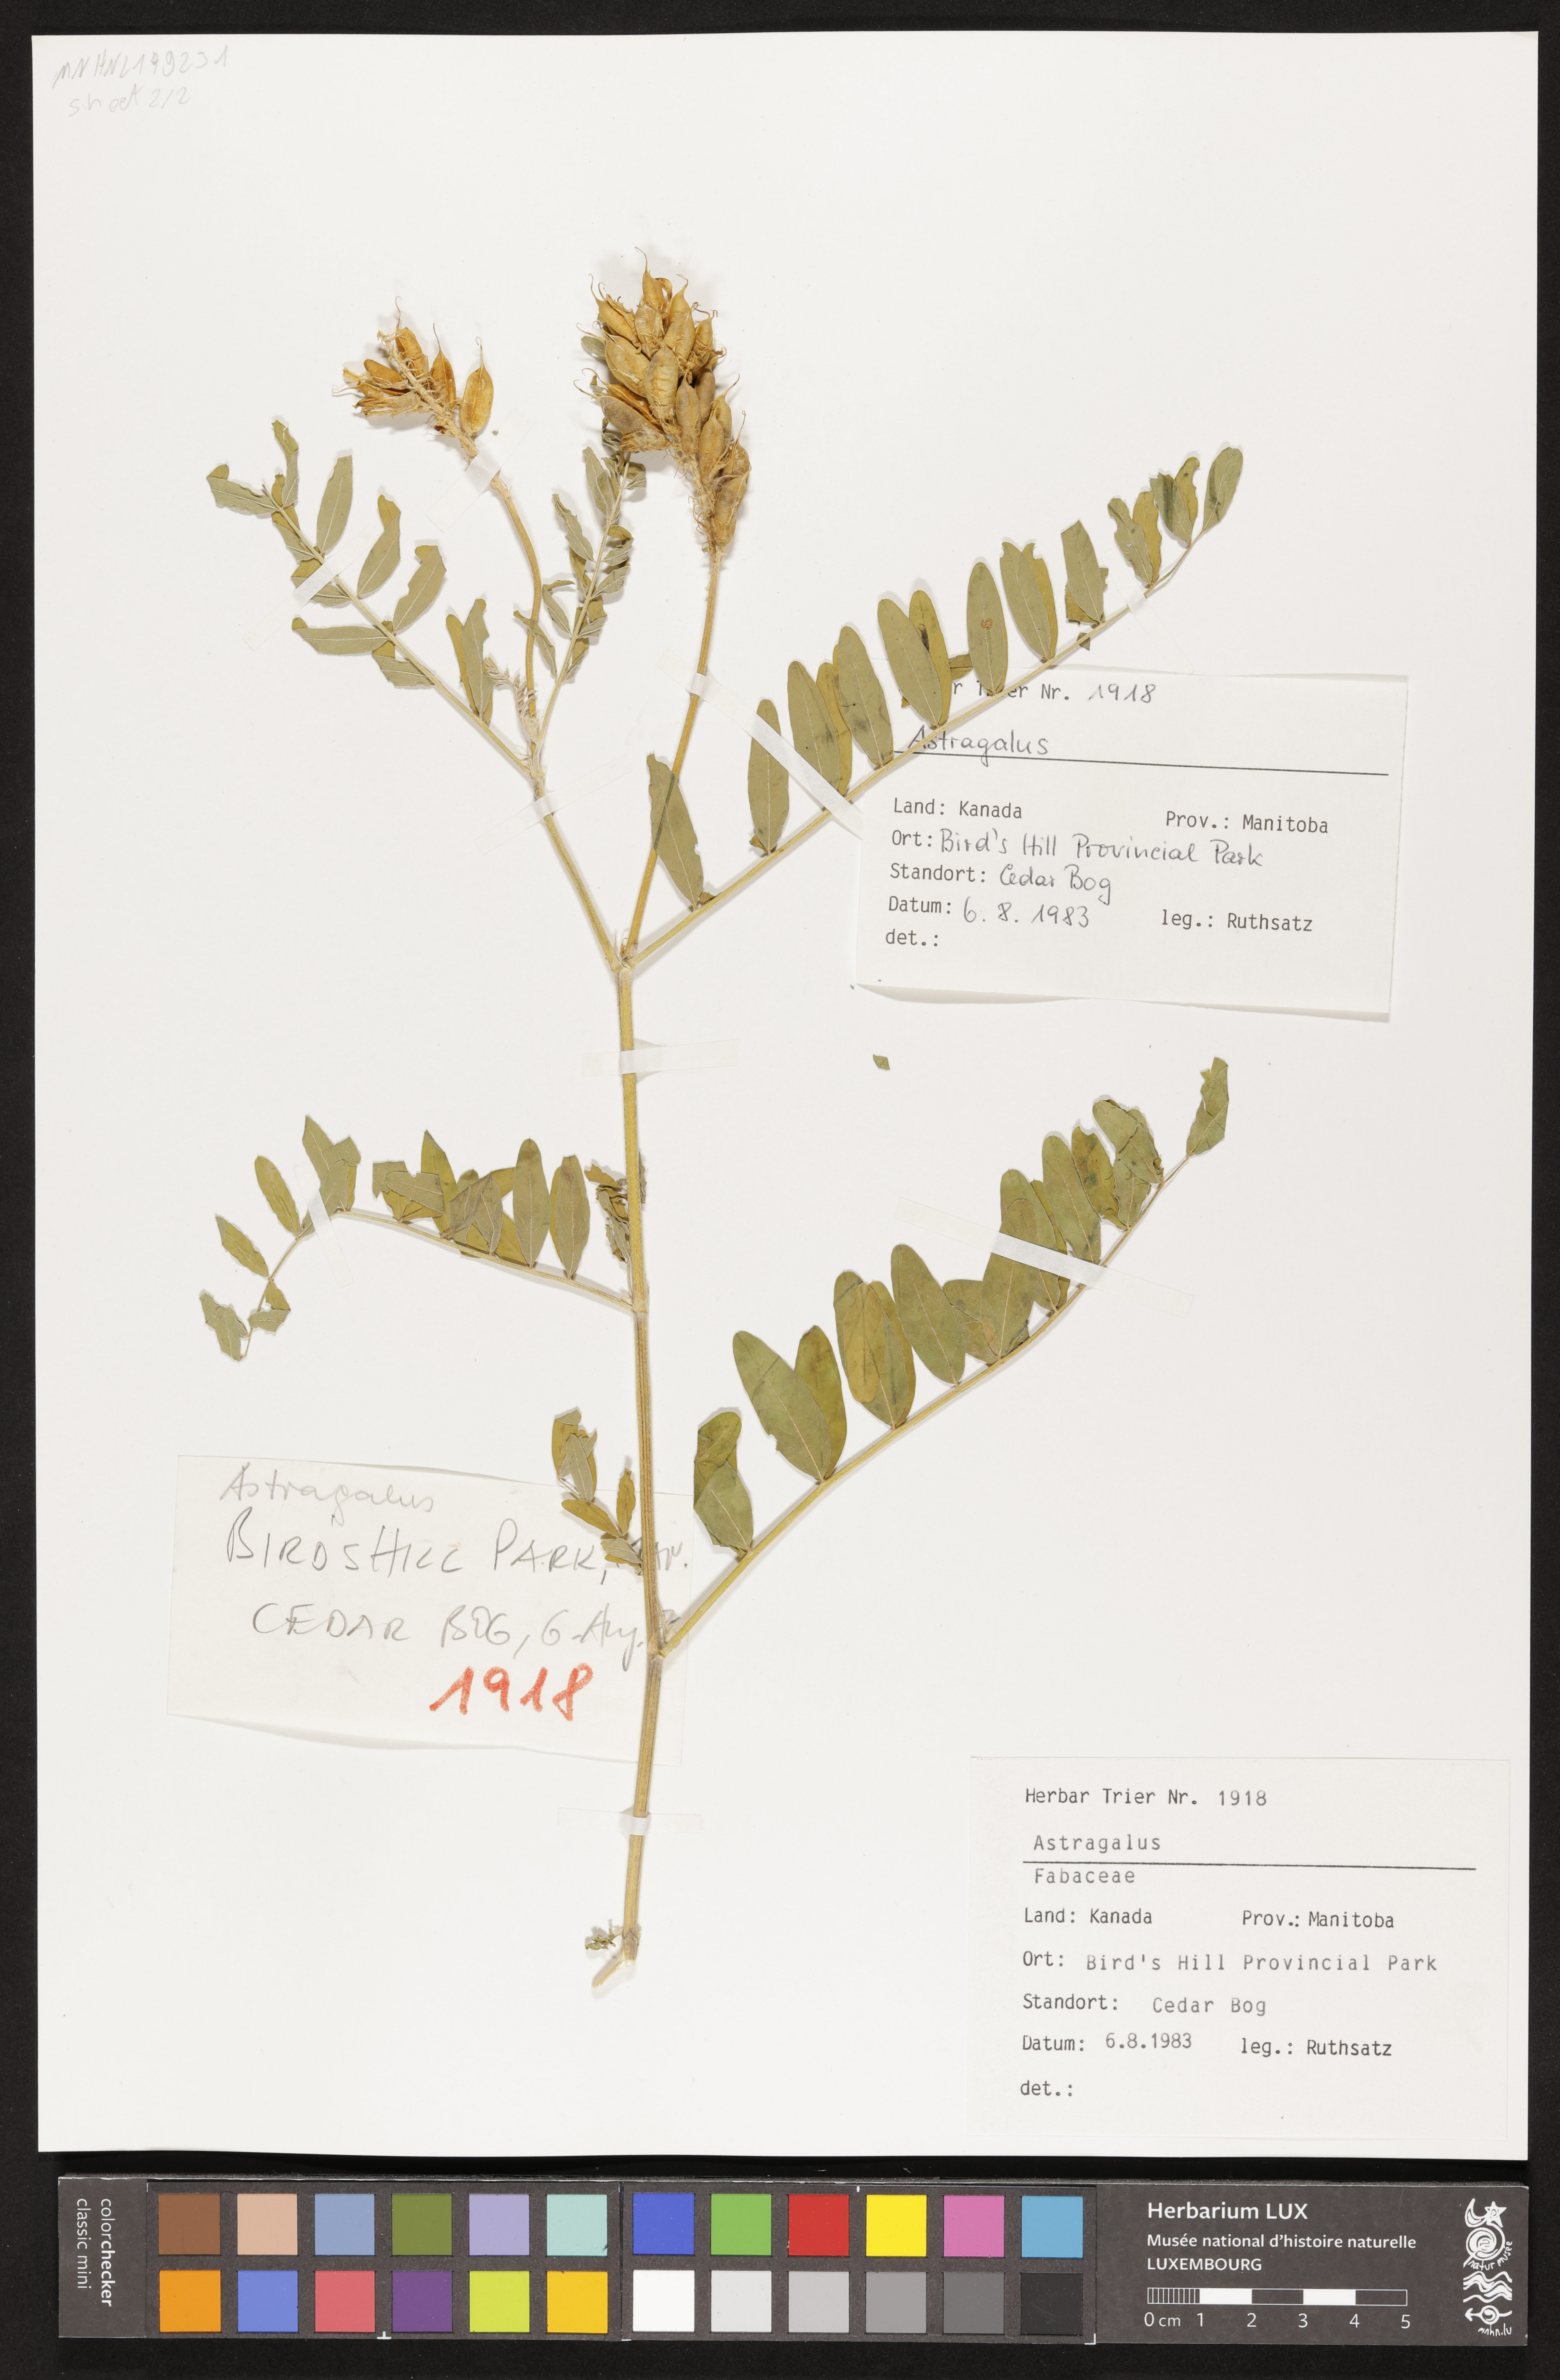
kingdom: Plantae
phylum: Tracheophyta
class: Magnoliopsida
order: Fabales
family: Fabaceae
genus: Astragalus
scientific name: Astragalus
